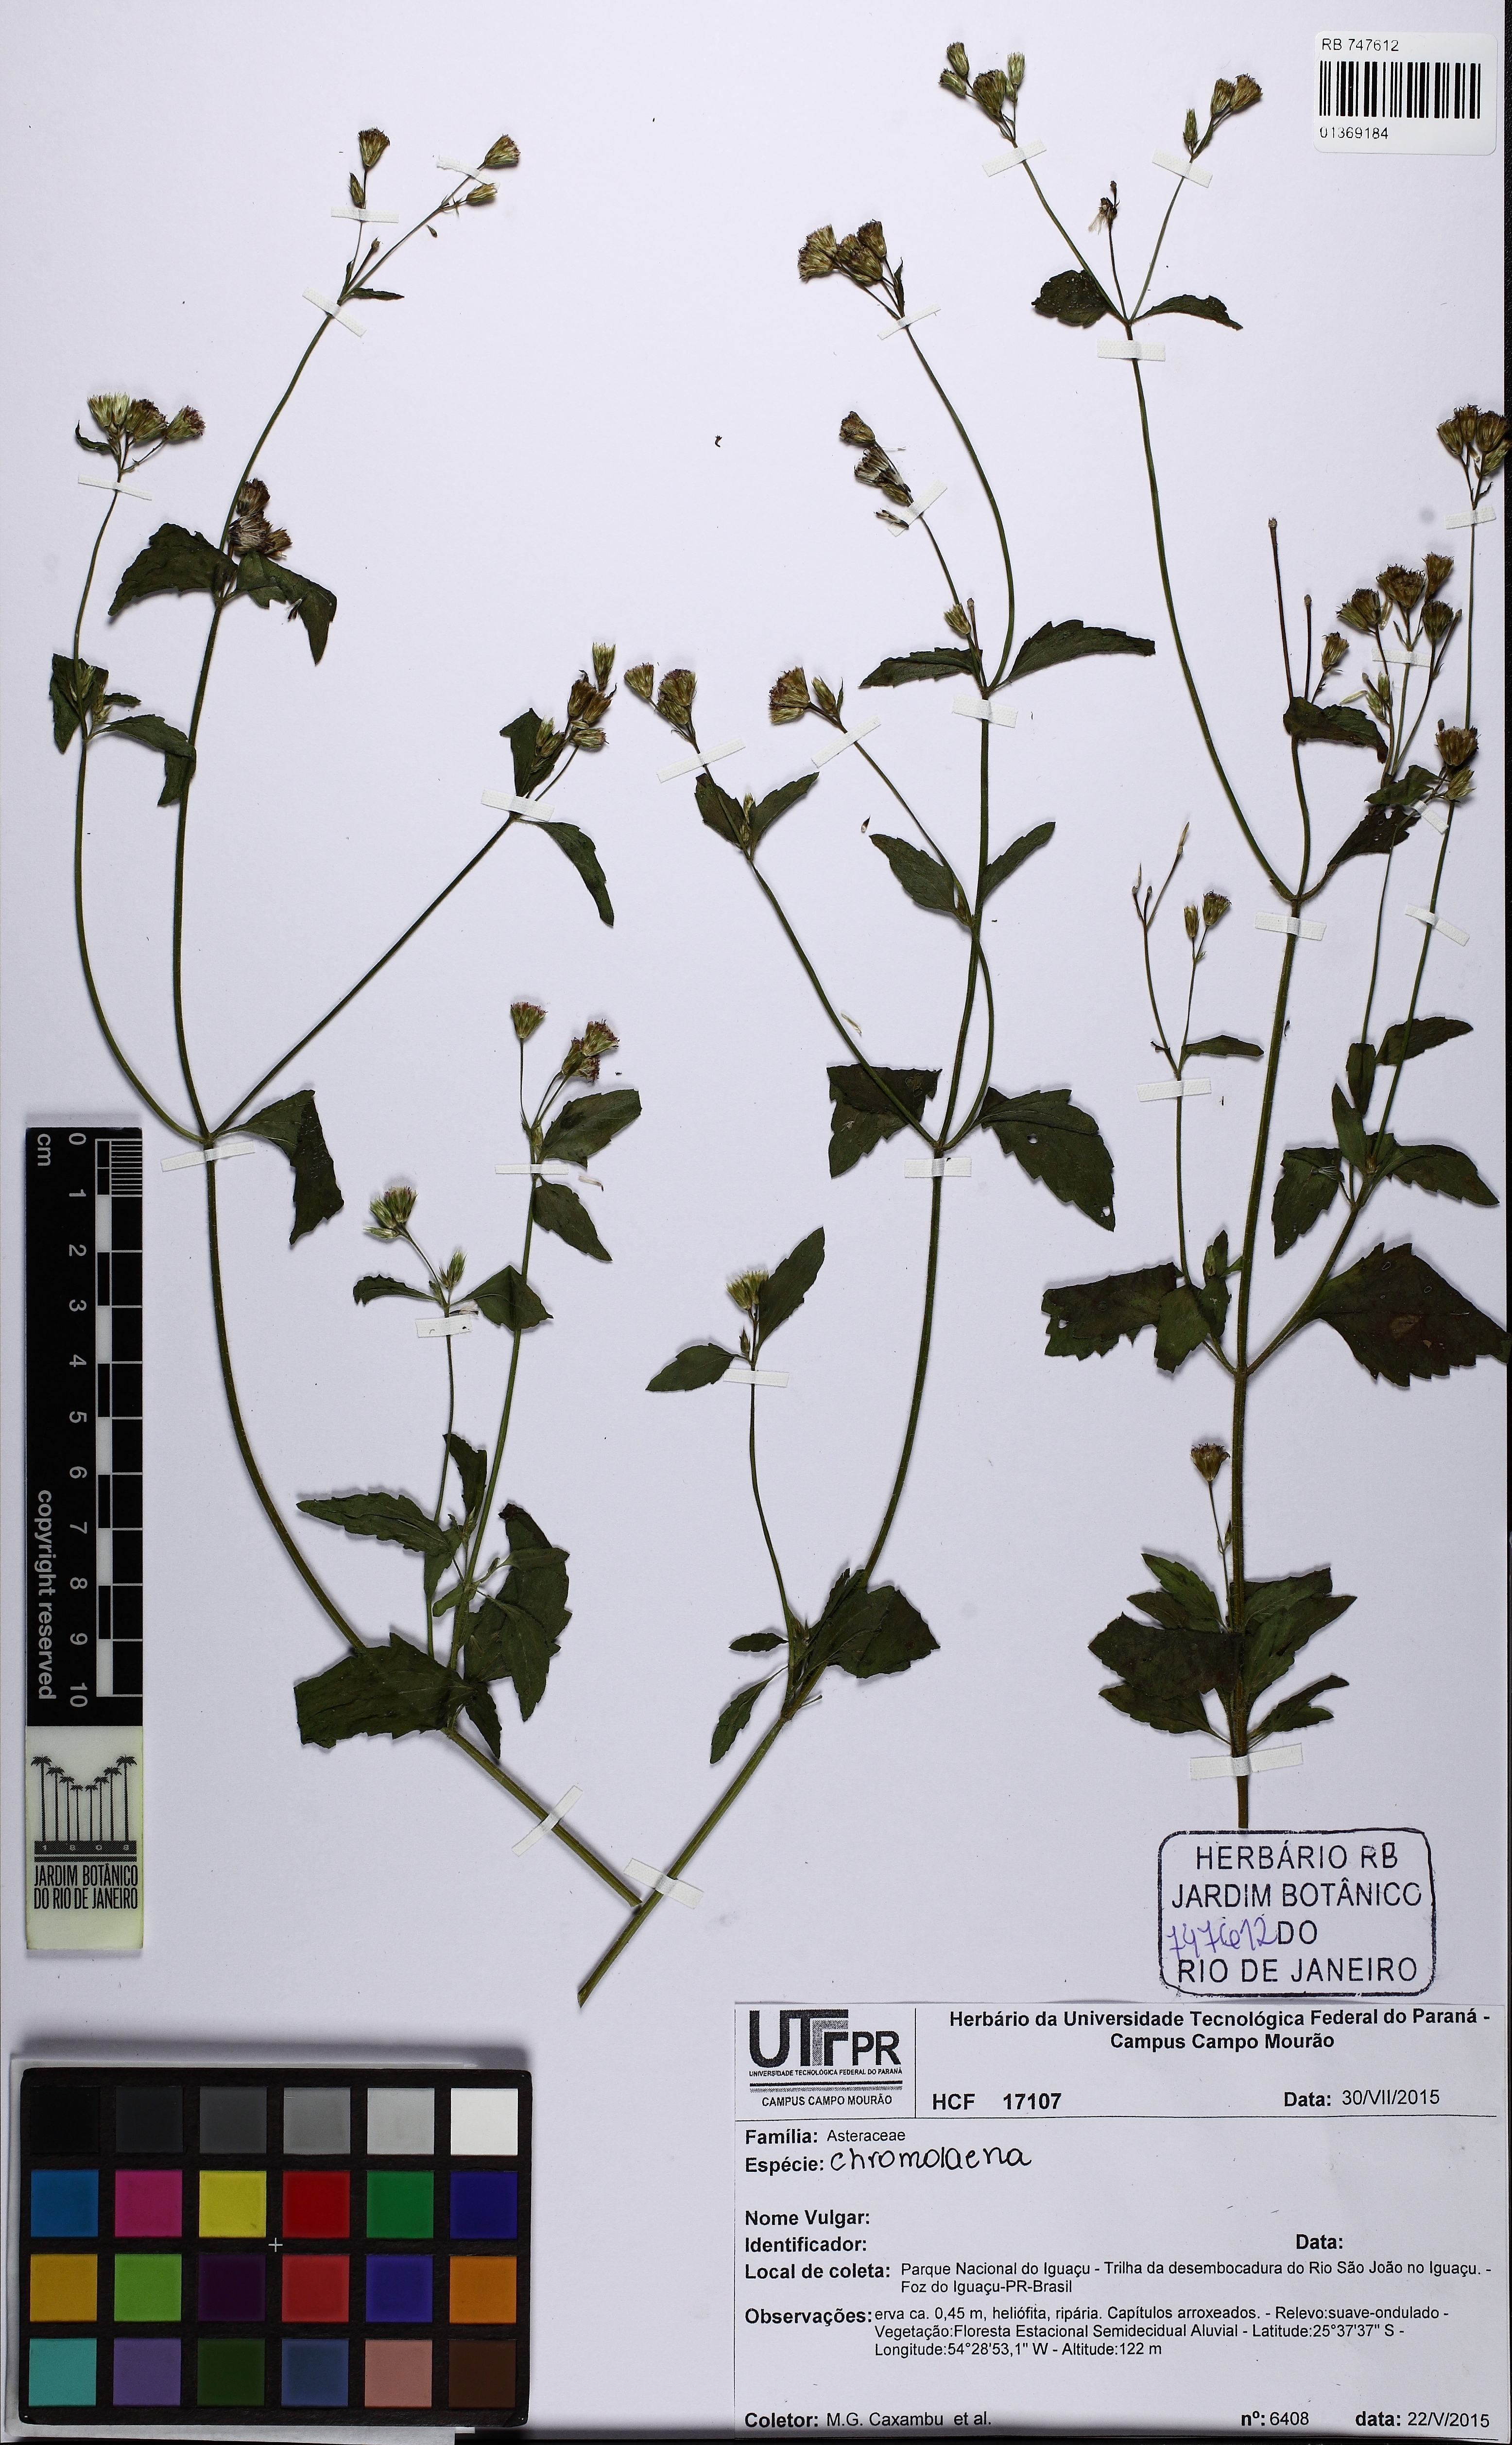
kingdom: Plantae
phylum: Tracheophyta
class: Magnoliopsida
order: Asterales
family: Asteraceae
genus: Chromolaena
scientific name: Chromolaena
